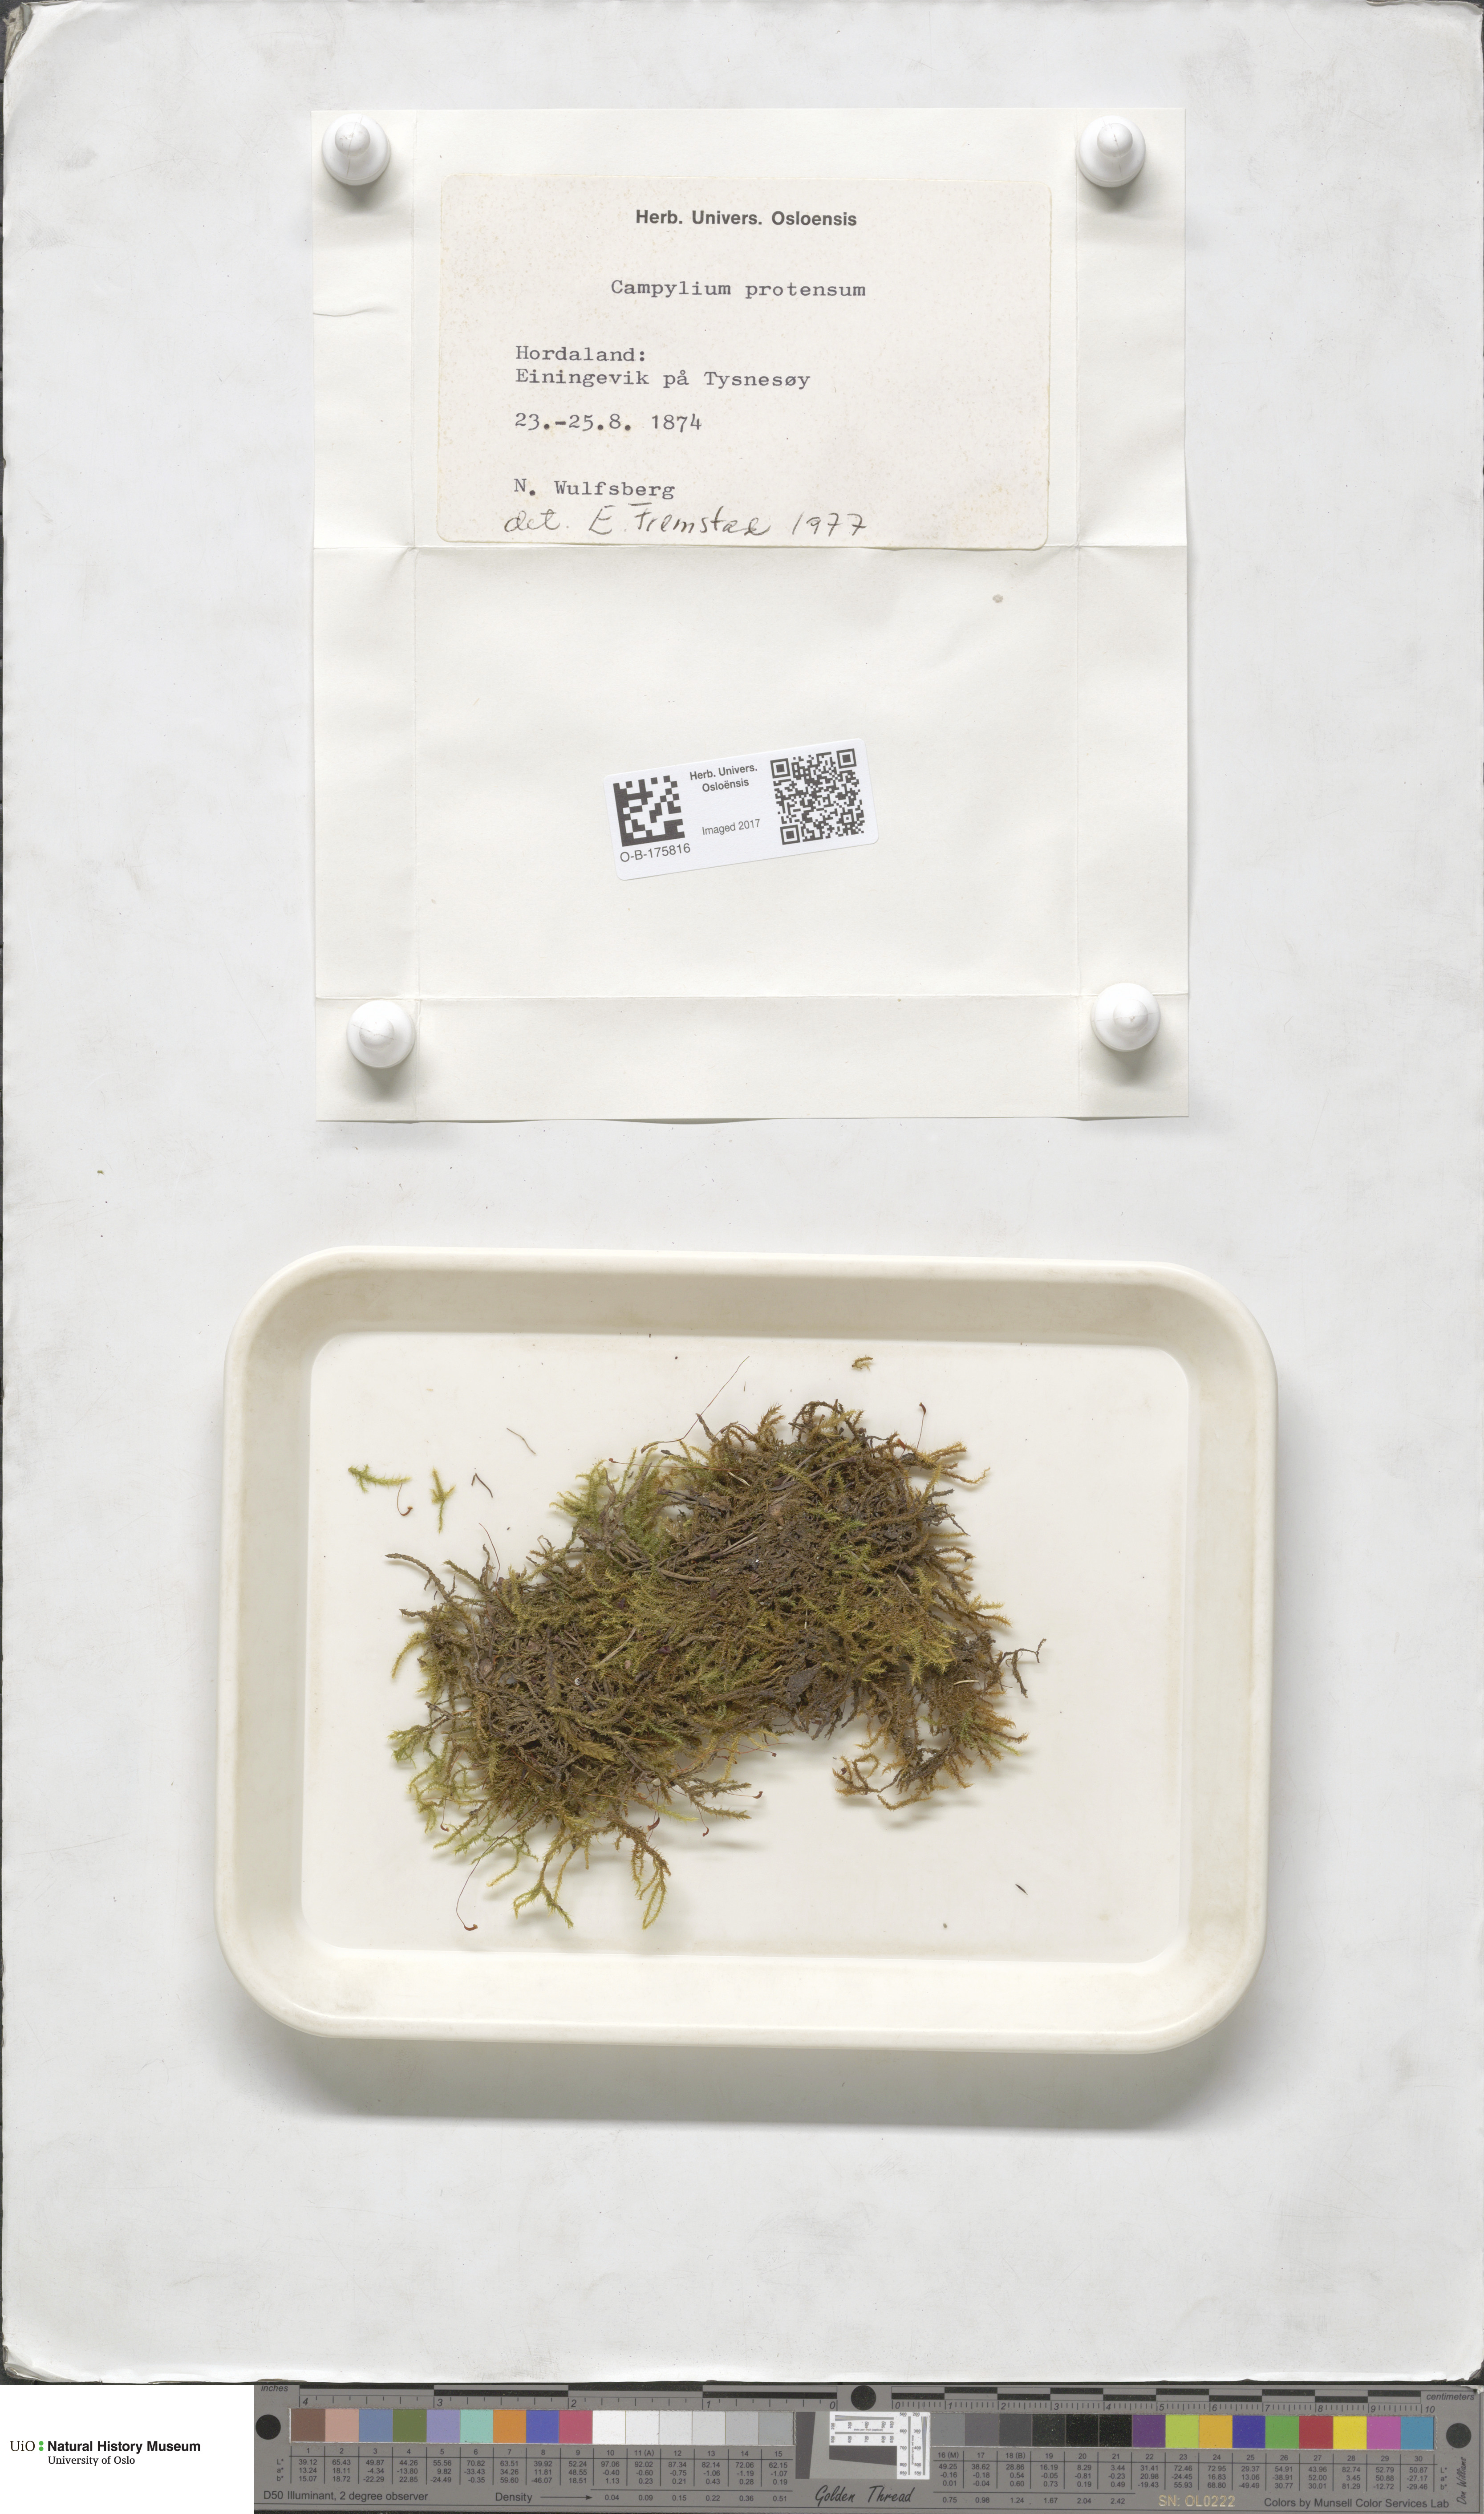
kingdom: Plantae
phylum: Bryophyta
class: Bryopsida
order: Hypnales
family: Amblystegiaceae
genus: Campylium
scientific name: Campylium stellatum
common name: Yellow starry fen moss
